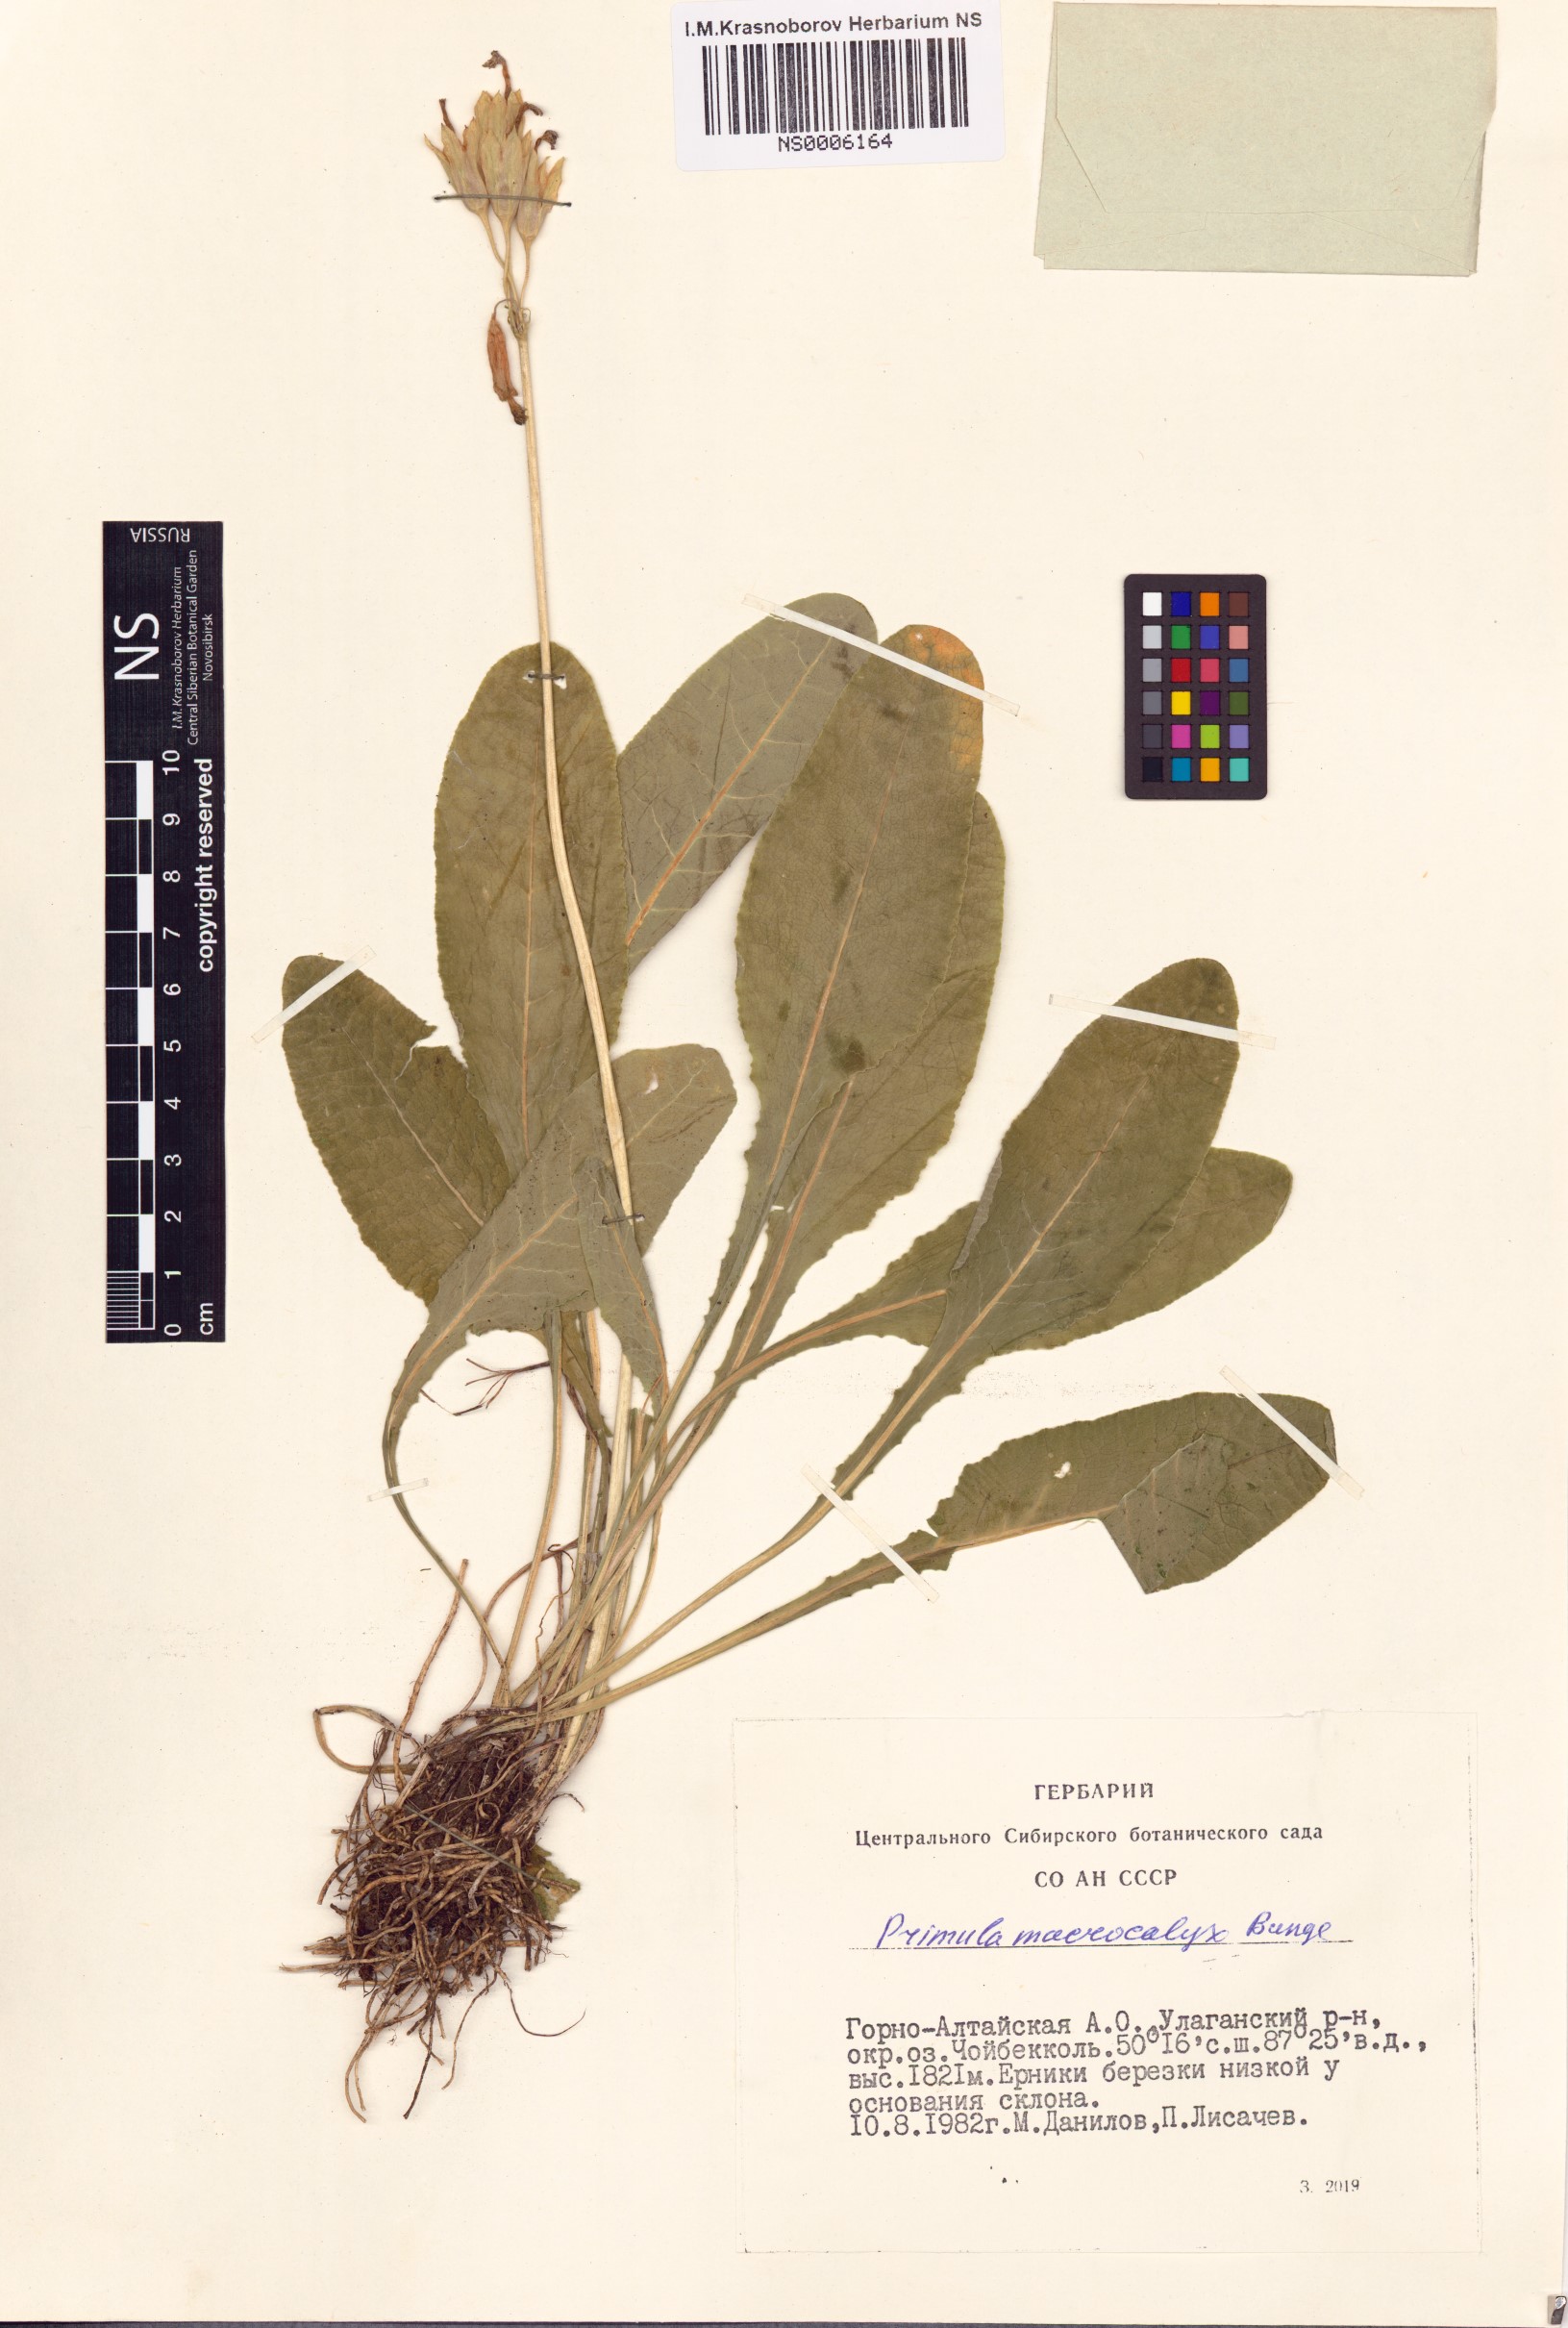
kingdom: Plantae
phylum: Tracheophyta
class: Magnoliopsida
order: Ericales
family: Primulaceae
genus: Primula
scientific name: Primula veris
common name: Cowslip
